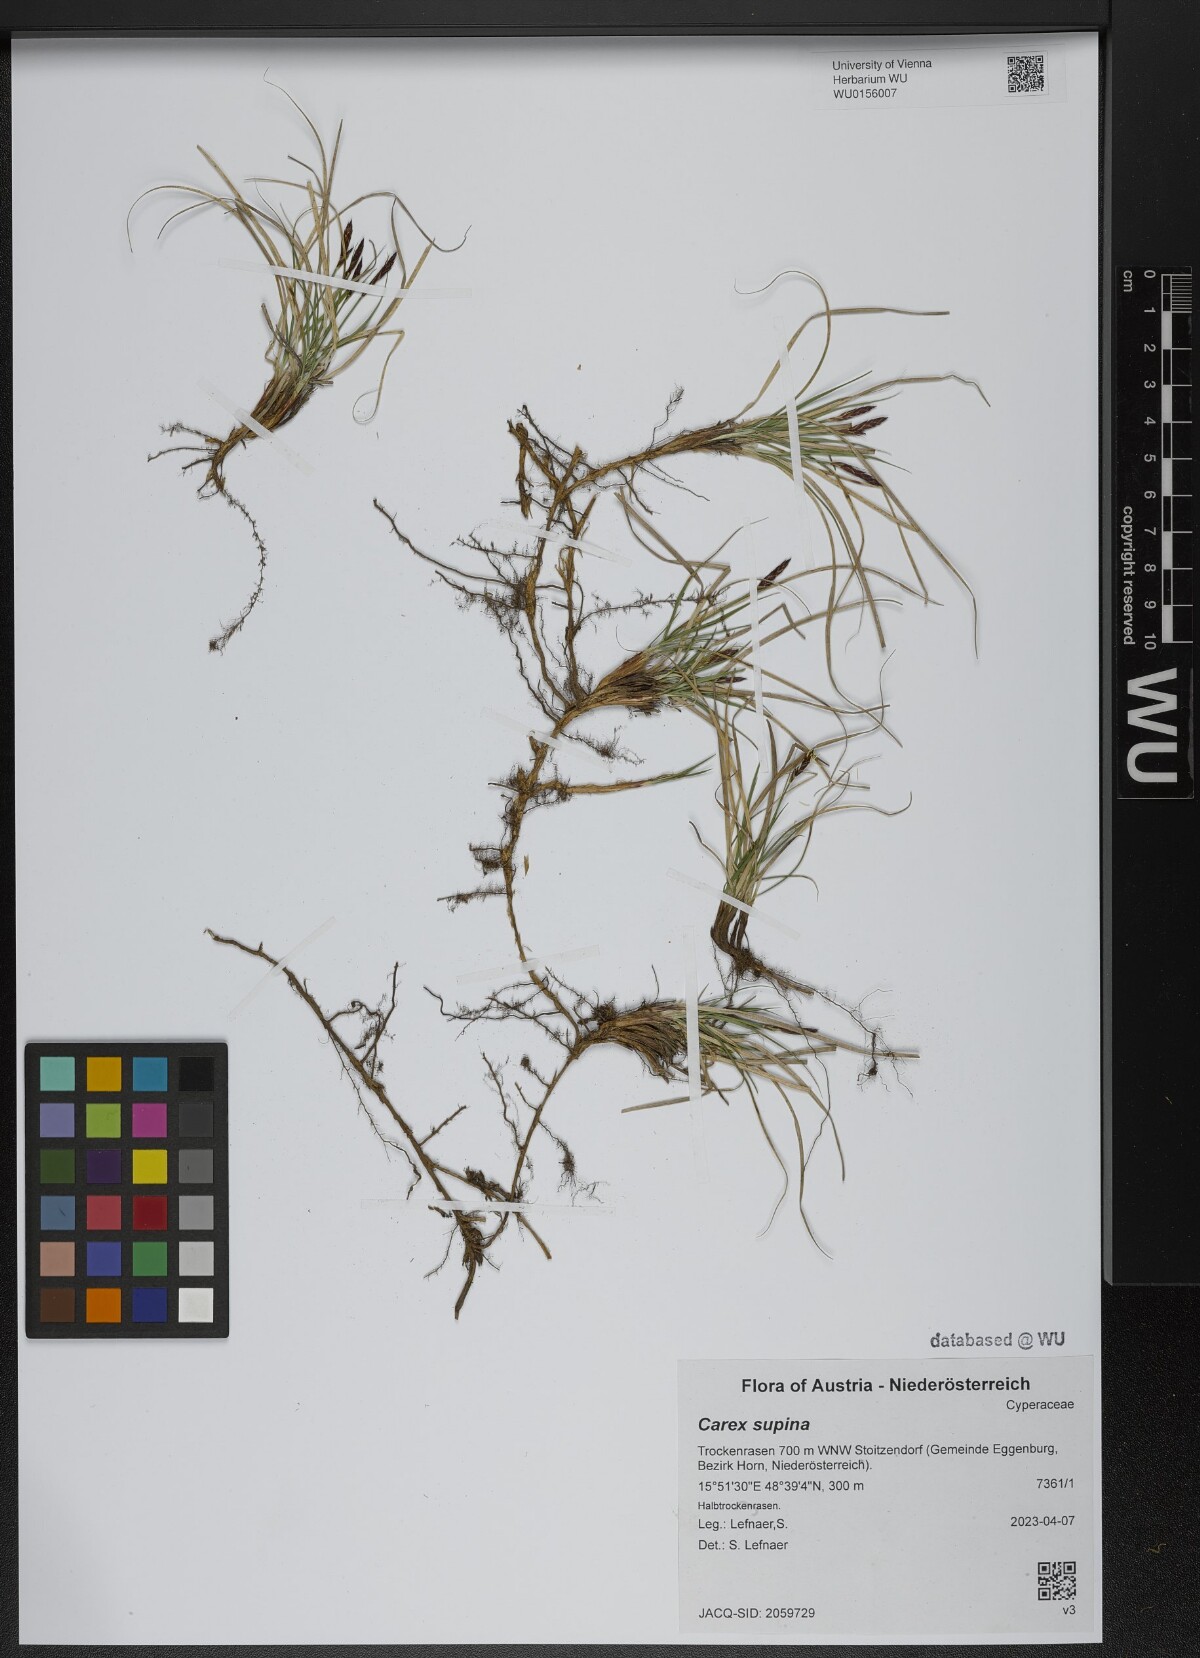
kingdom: Plantae
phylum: Tracheophyta
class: Liliopsida
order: Poales
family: Cyperaceae
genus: Carex
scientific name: Carex supina
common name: Lying-back sedge
